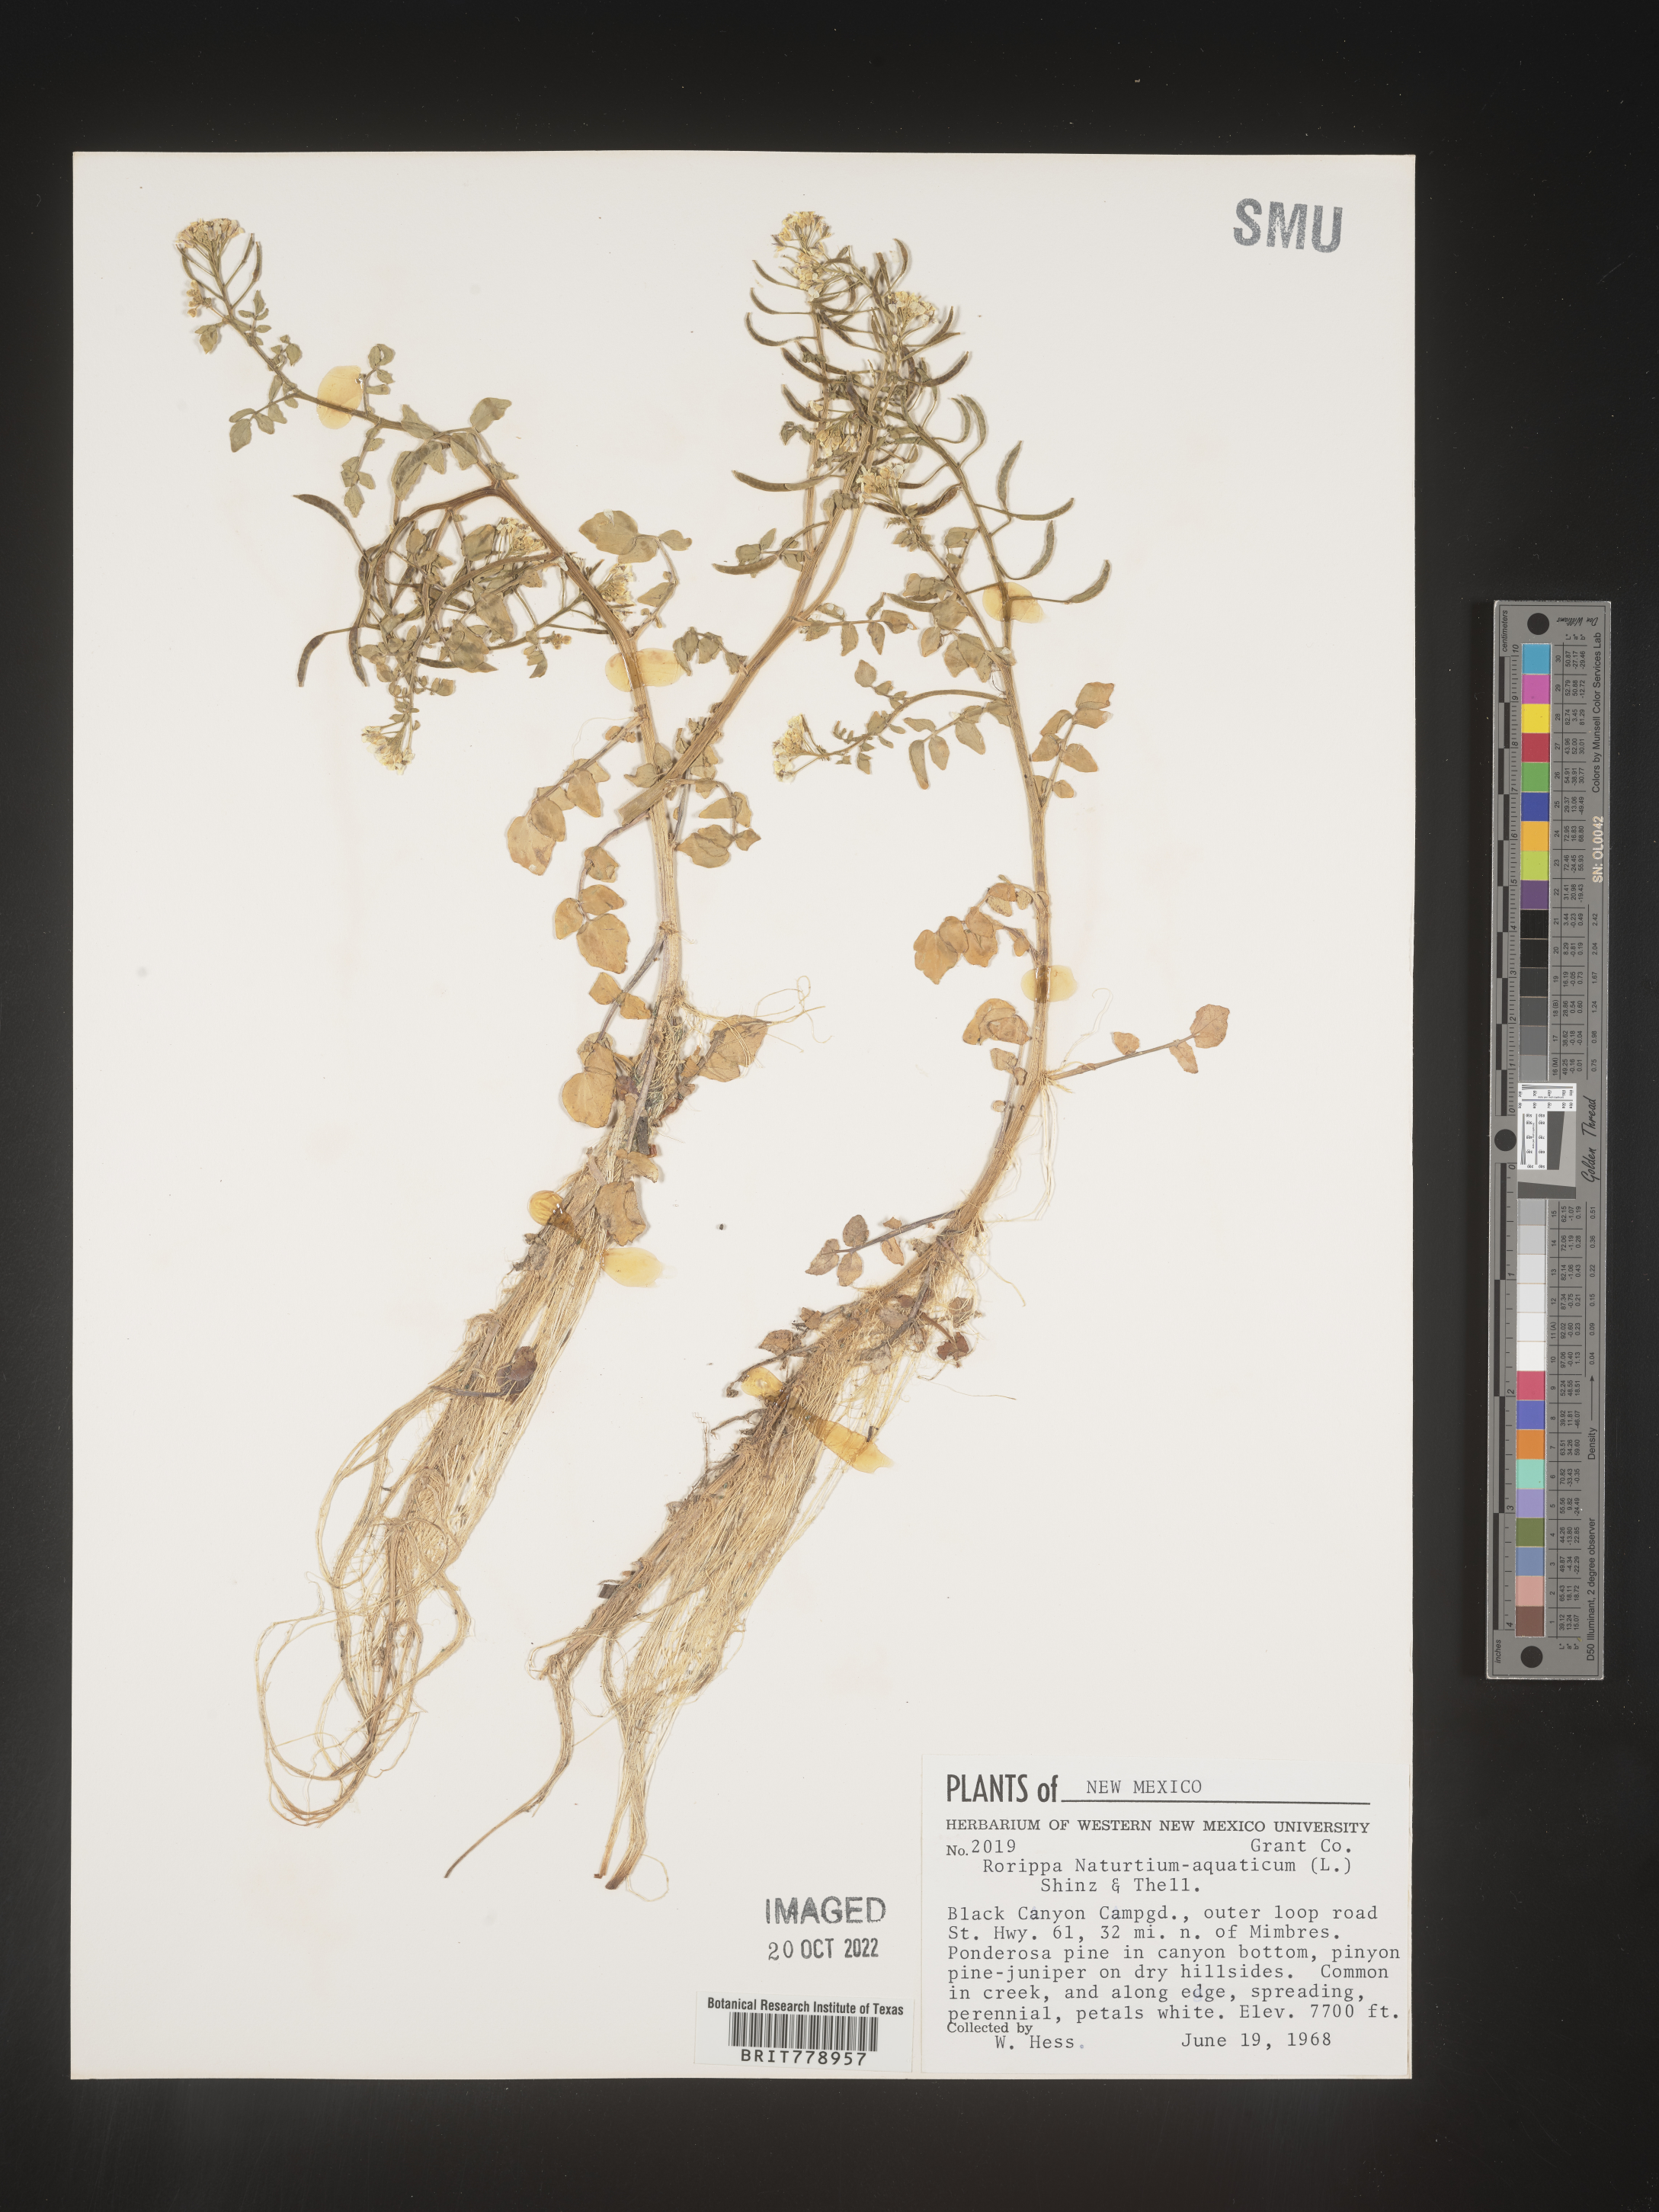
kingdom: Plantae
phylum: Tracheophyta
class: Magnoliopsida
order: Brassicales
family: Brassicaceae
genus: Nasturtium
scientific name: Nasturtium officinale
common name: Watercress
